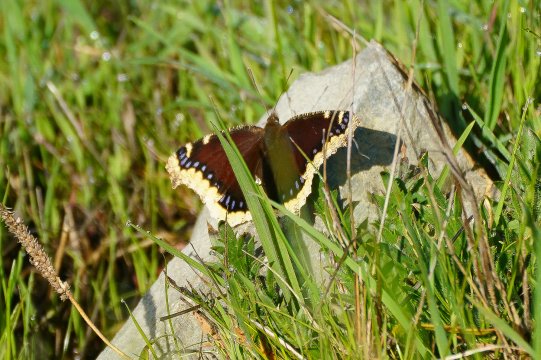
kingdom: Animalia
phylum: Arthropoda
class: Insecta
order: Lepidoptera
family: Nymphalidae
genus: Nymphalis
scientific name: Nymphalis antiopa
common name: Mourning Cloak
